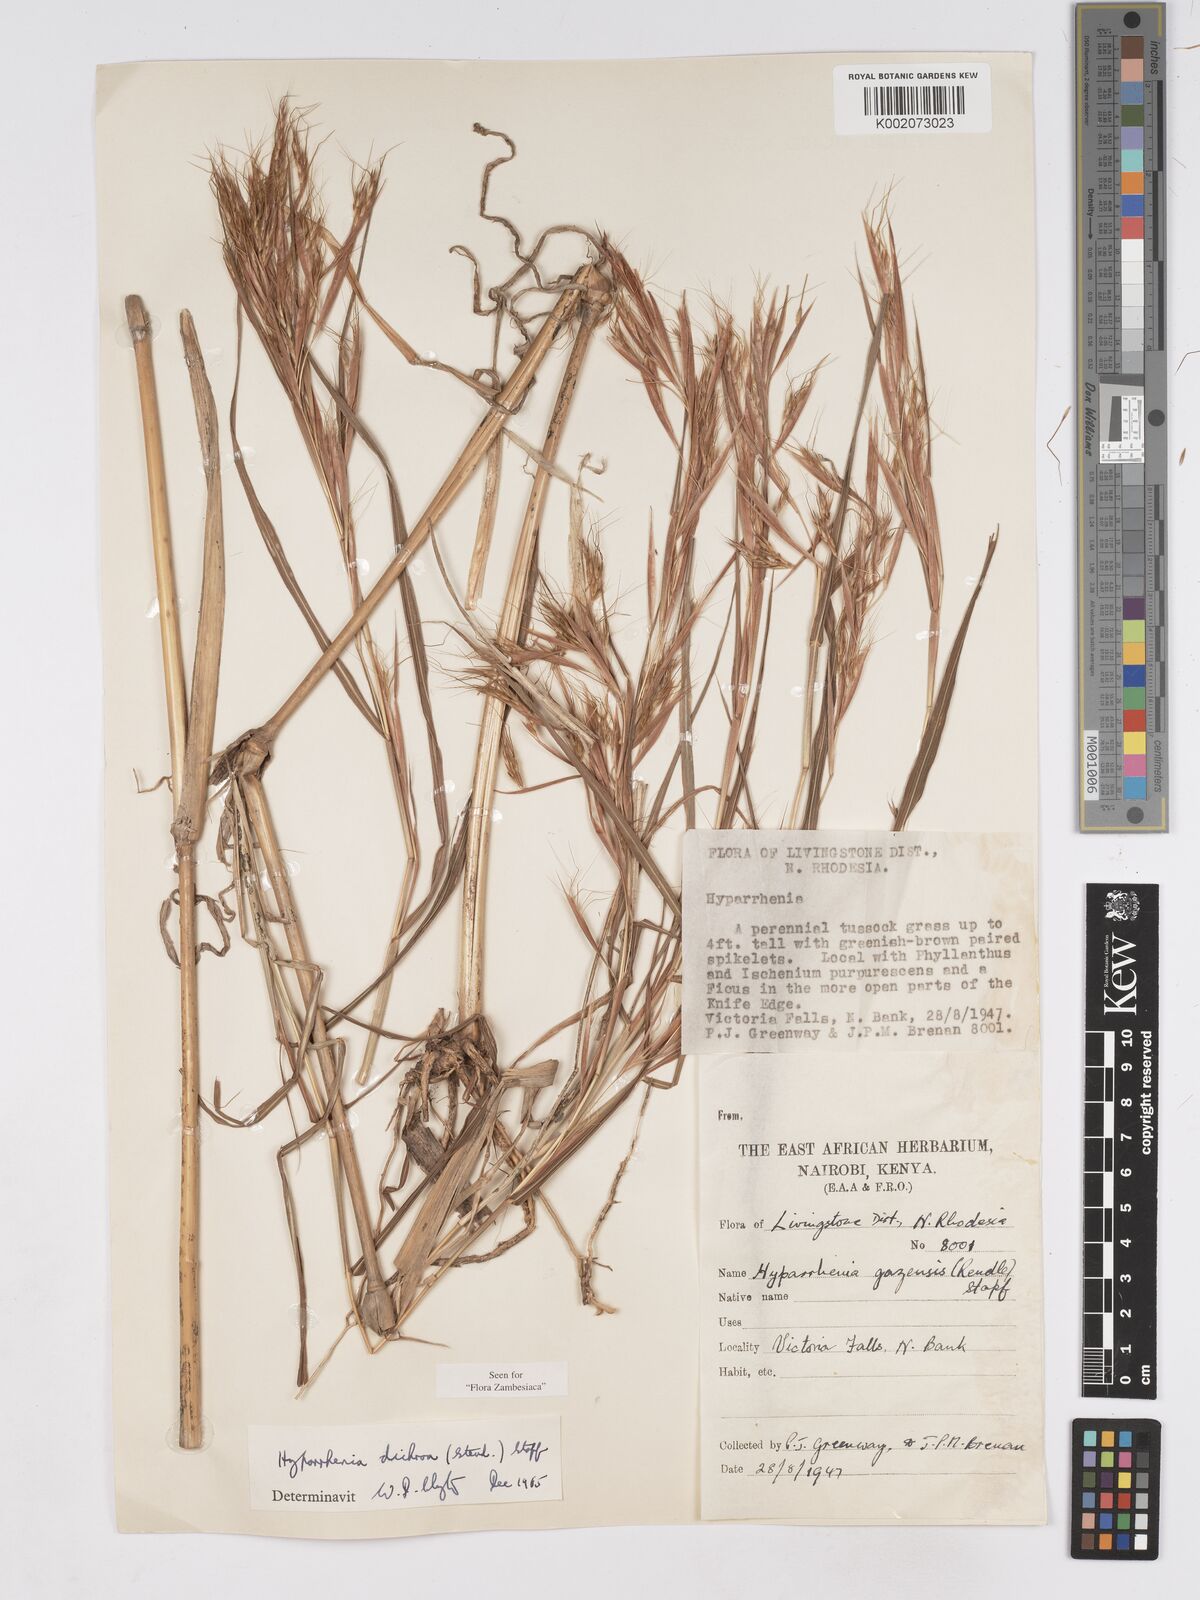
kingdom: Plantae
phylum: Tracheophyta
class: Liliopsida
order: Poales
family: Poaceae
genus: Hyparrhenia
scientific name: Hyparrhenia dichroa
